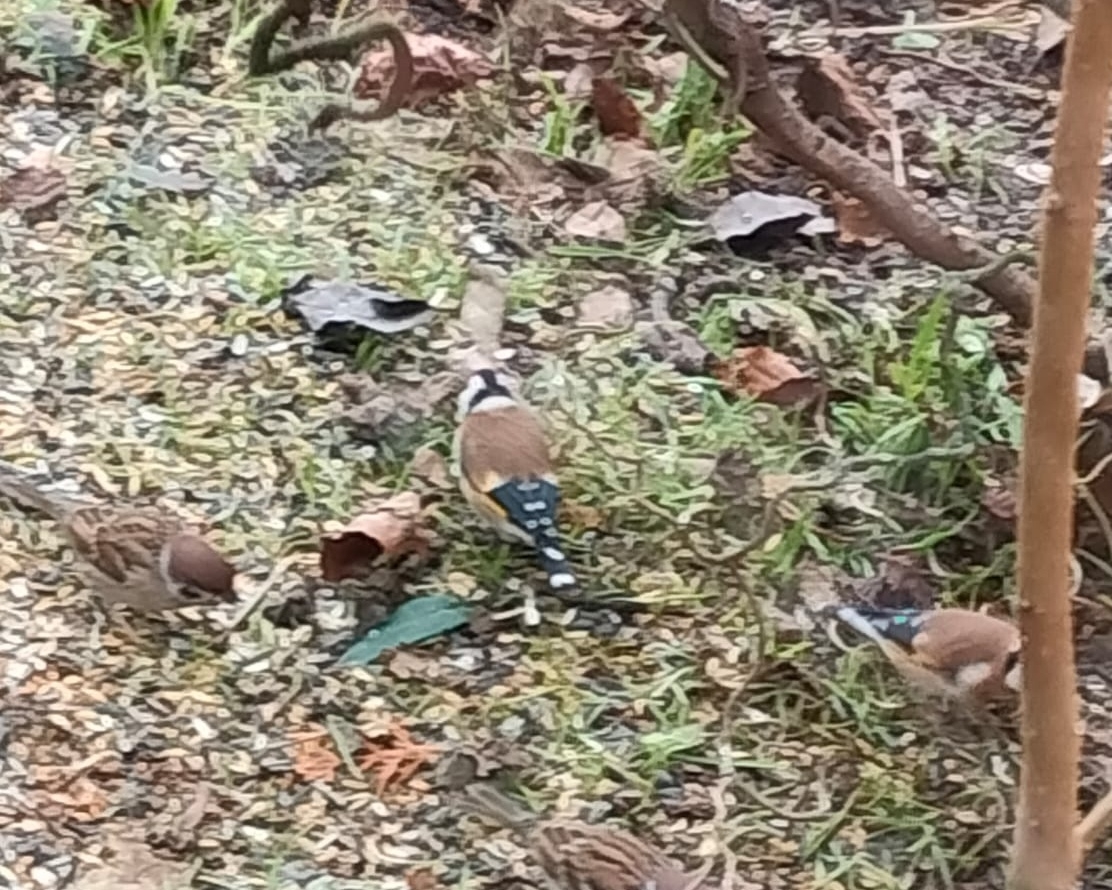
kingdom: Animalia
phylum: Chordata
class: Aves
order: Passeriformes
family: Fringillidae
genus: Carduelis
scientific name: Carduelis carduelis
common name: Stillits
